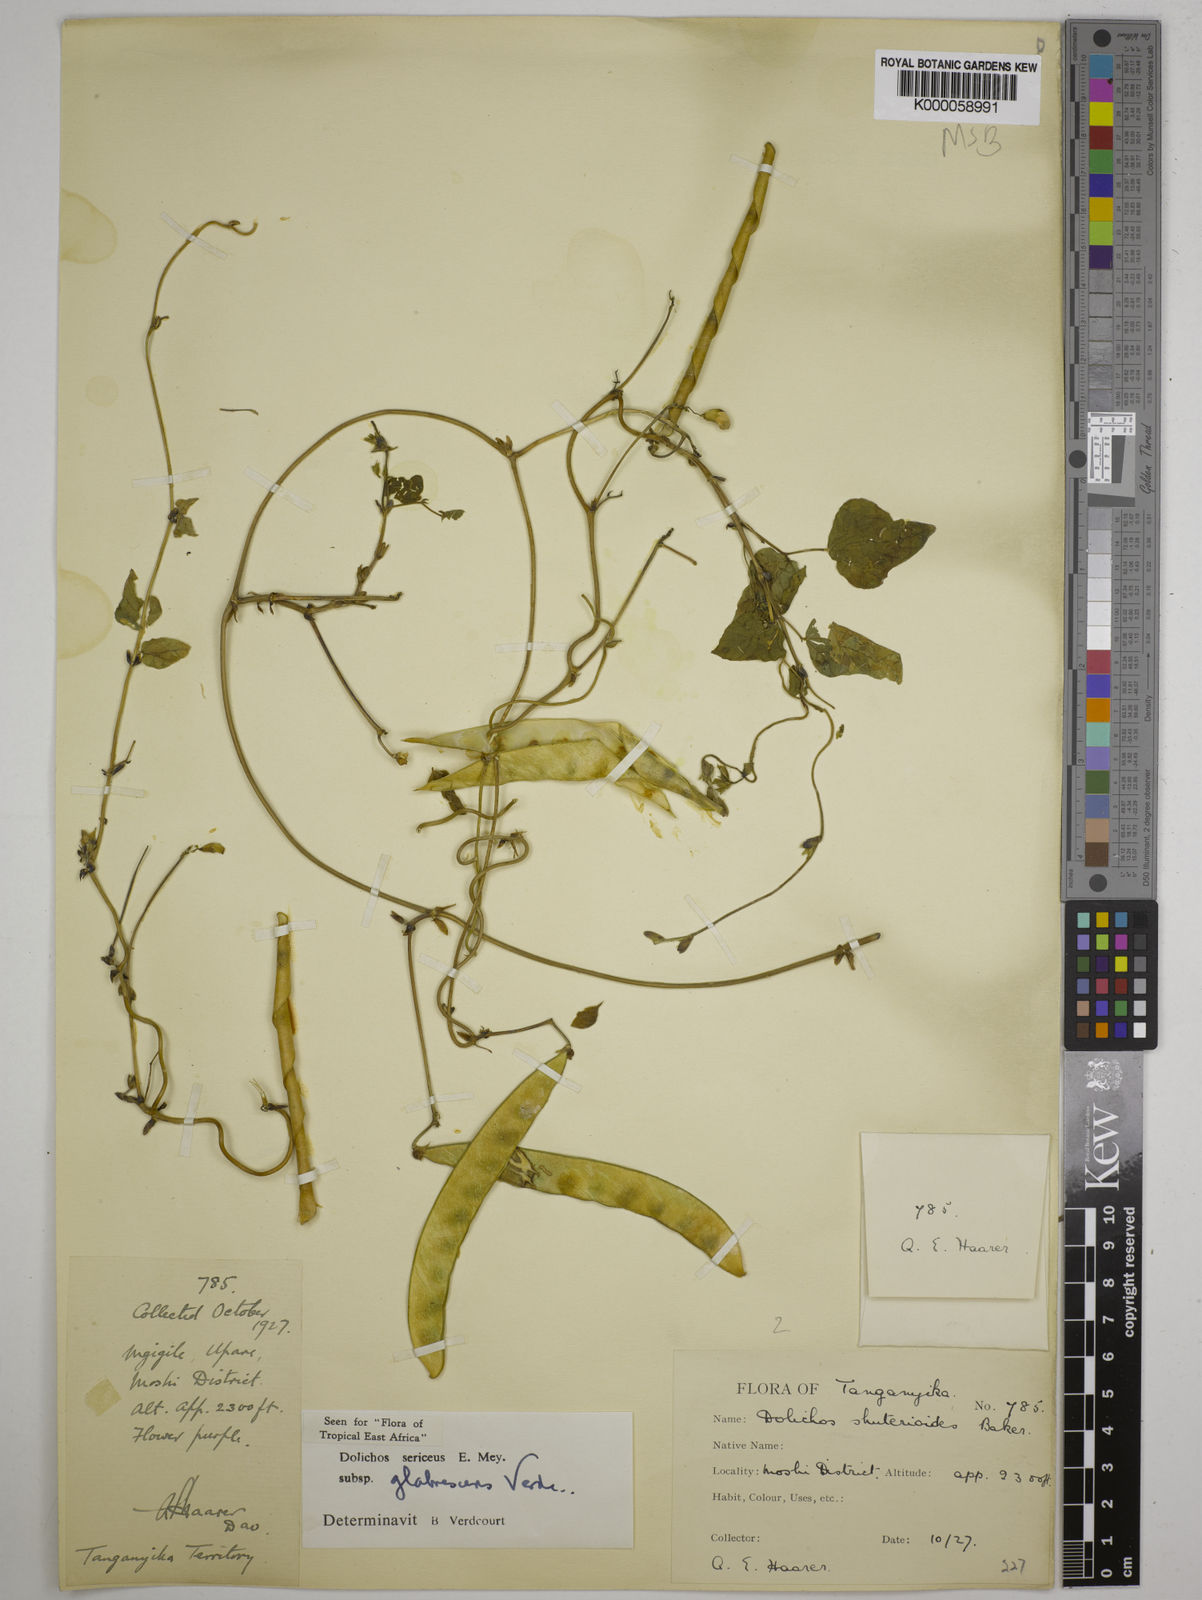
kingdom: Plantae
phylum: Tracheophyta
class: Magnoliopsida
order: Fabales
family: Fabaceae
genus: Dolichos
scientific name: Dolichos sericeus
